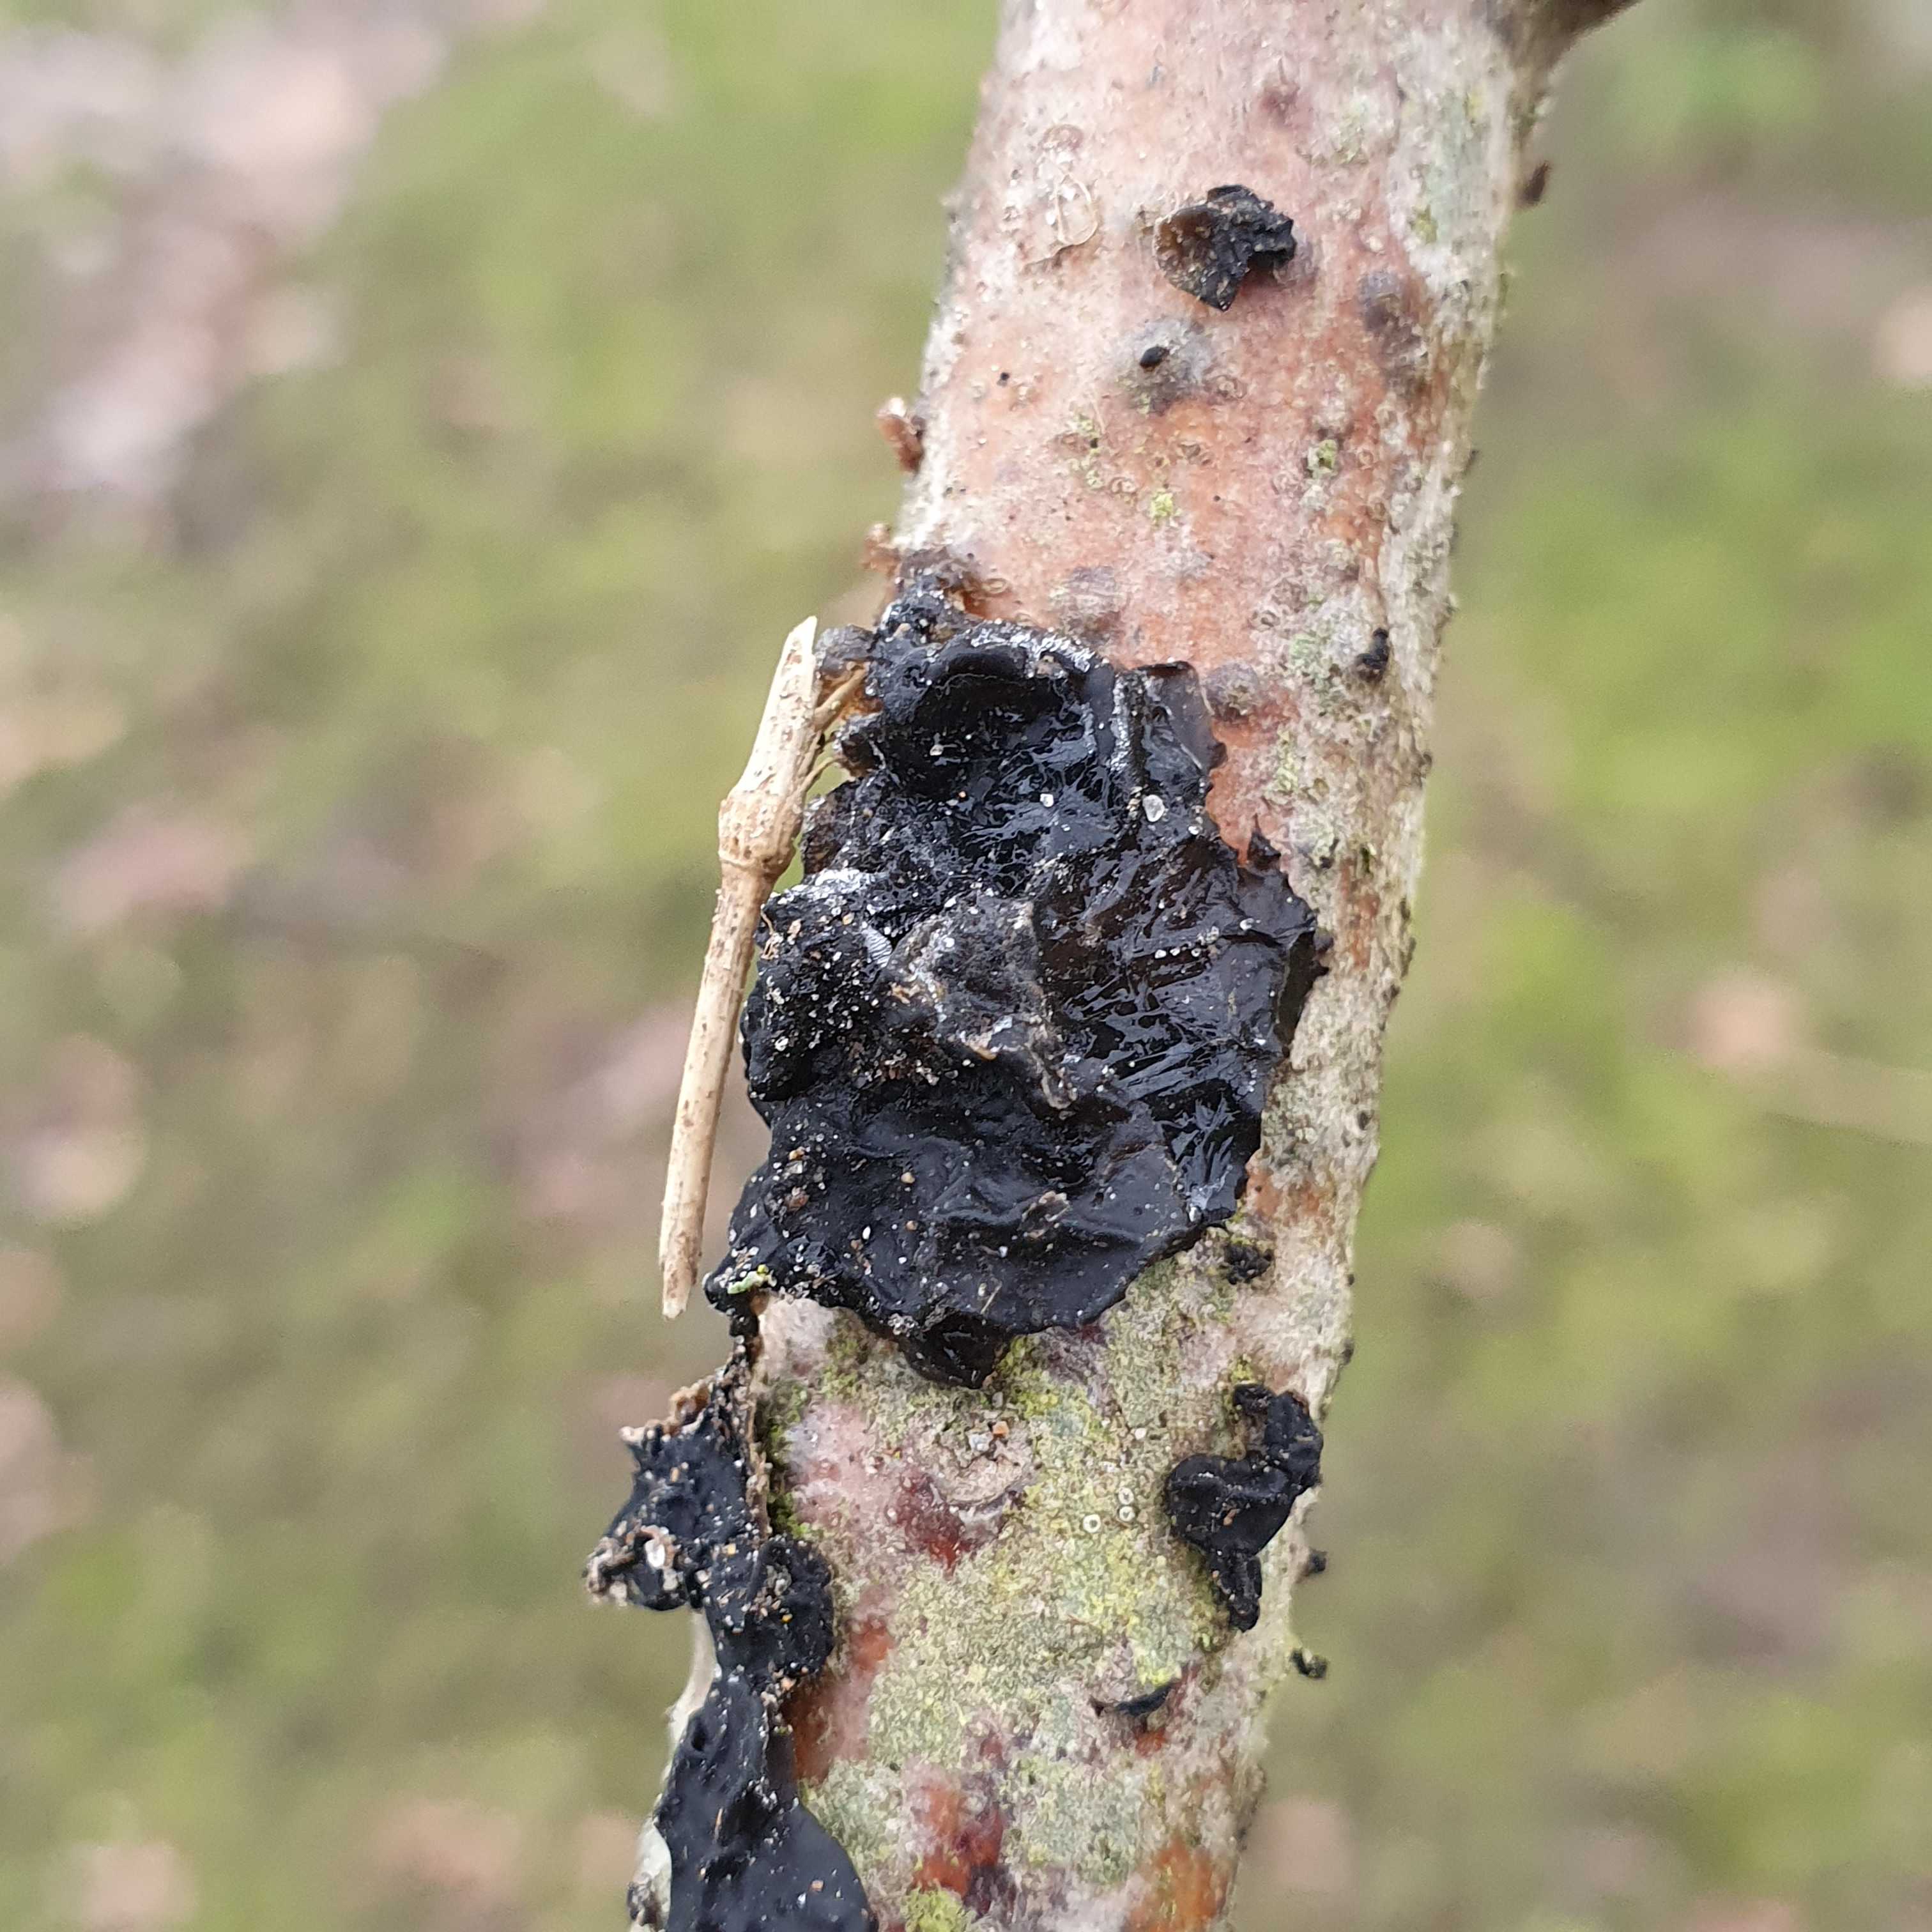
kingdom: Fungi
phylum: Basidiomycota
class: Agaricomycetes
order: Auriculariales
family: Auriculariaceae
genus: Exidia
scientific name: Exidia glandulosa
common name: ege-bævretop
